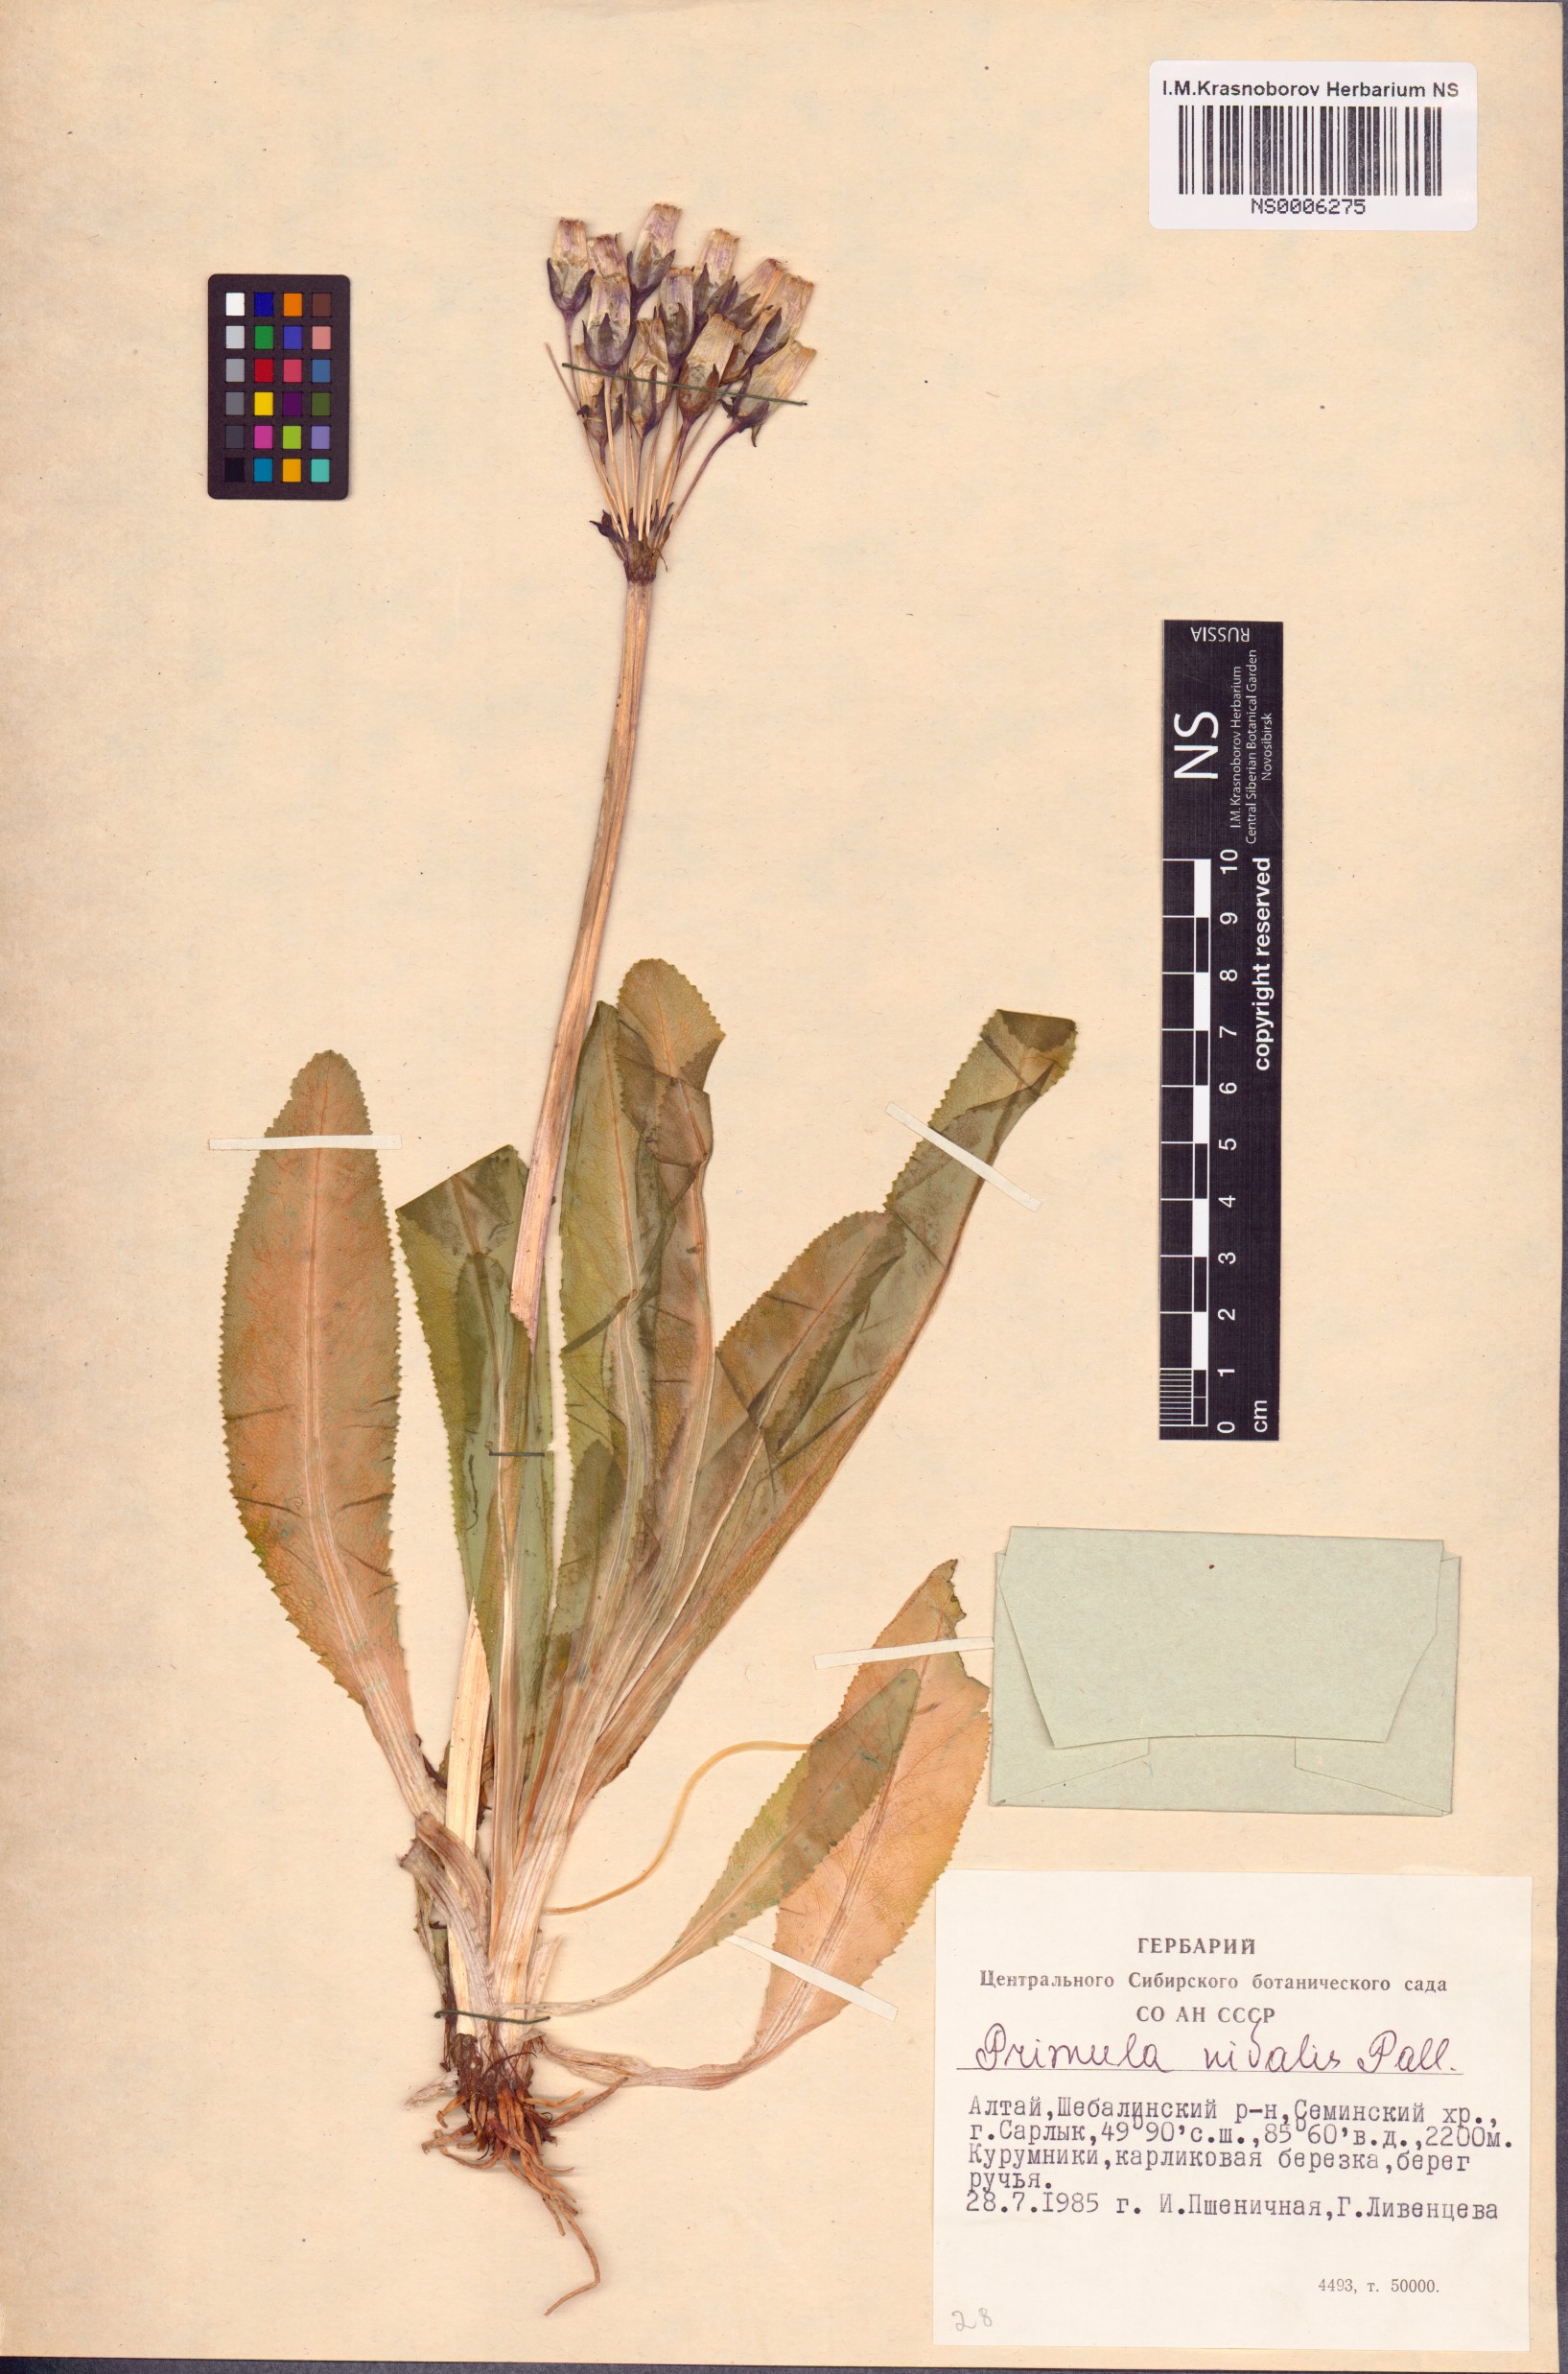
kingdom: Plantae
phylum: Tracheophyta
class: Magnoliopsida
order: Ericales
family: Primulaceae
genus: Primula
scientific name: Primula nivalis
